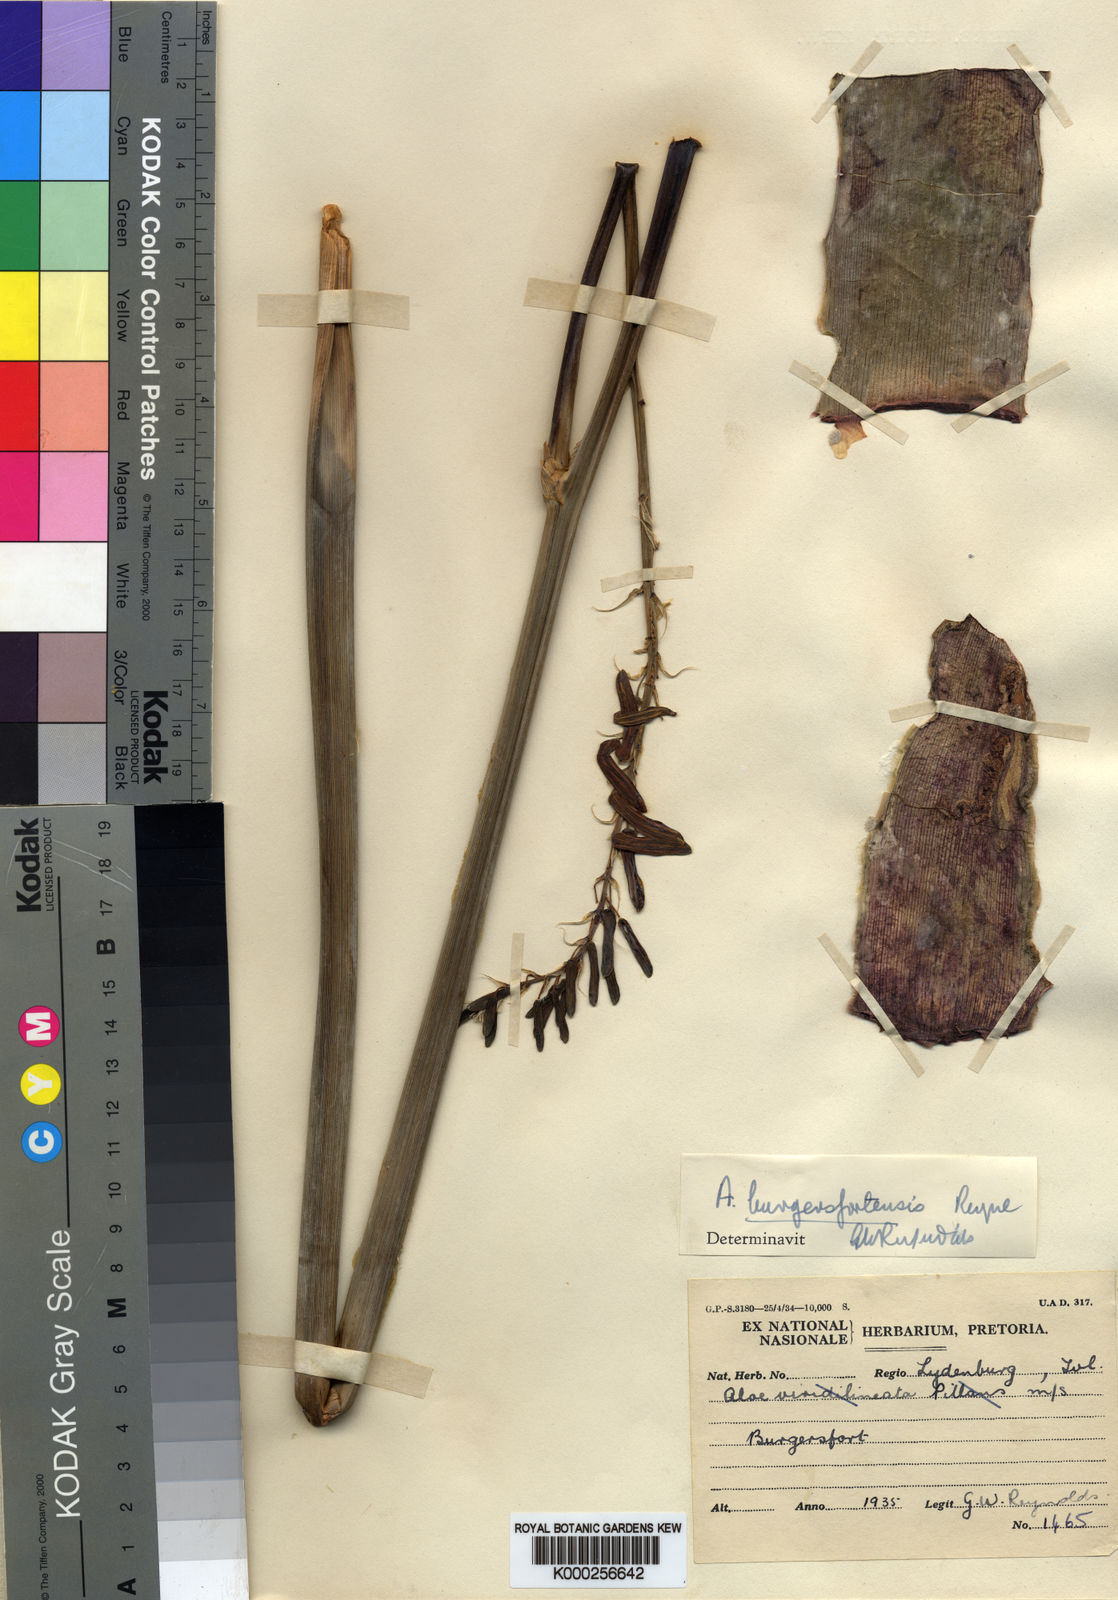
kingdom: Plantae
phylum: Tracheophyta
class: Liliopsida
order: Asparagales
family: Asphodelaceae
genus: Aloe
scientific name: Aloe burgersfortensis
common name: Burgersfort aloe
